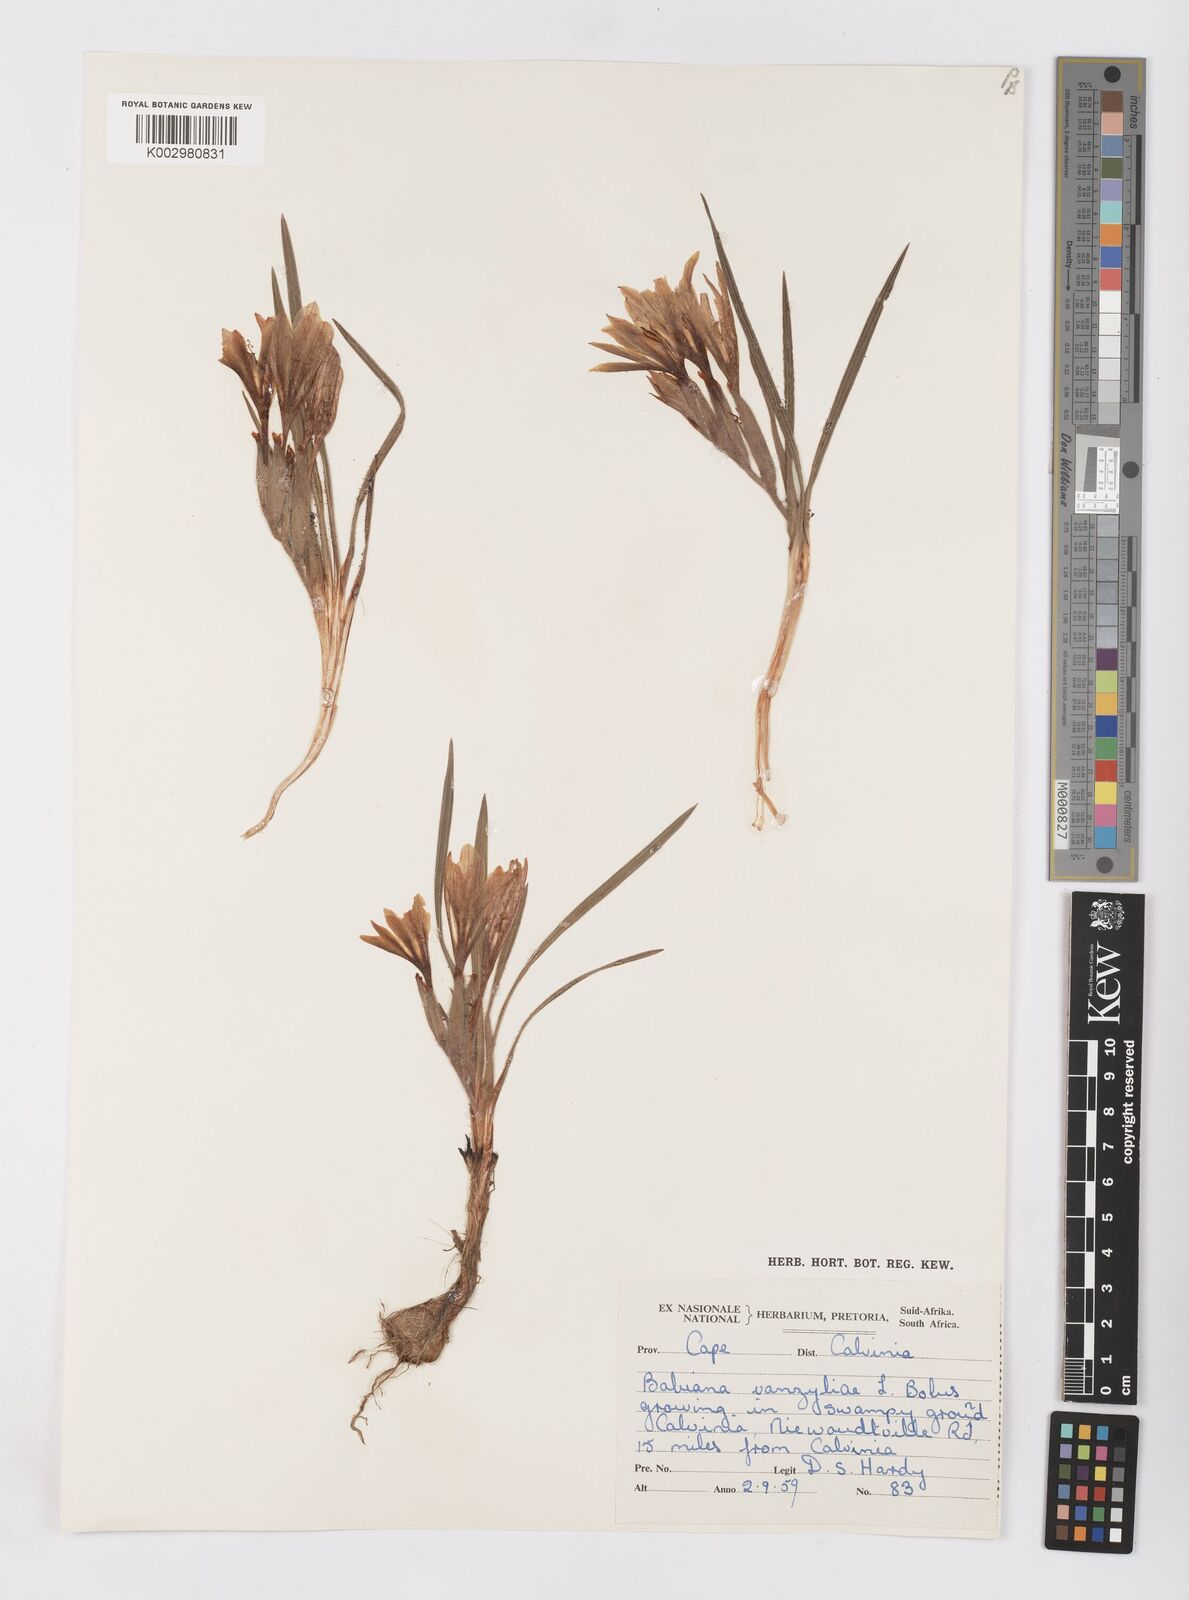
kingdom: Plantae
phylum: Tracheophyta
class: Liliopsida
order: Asparagales
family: Iridaceae
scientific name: Iridaceae
